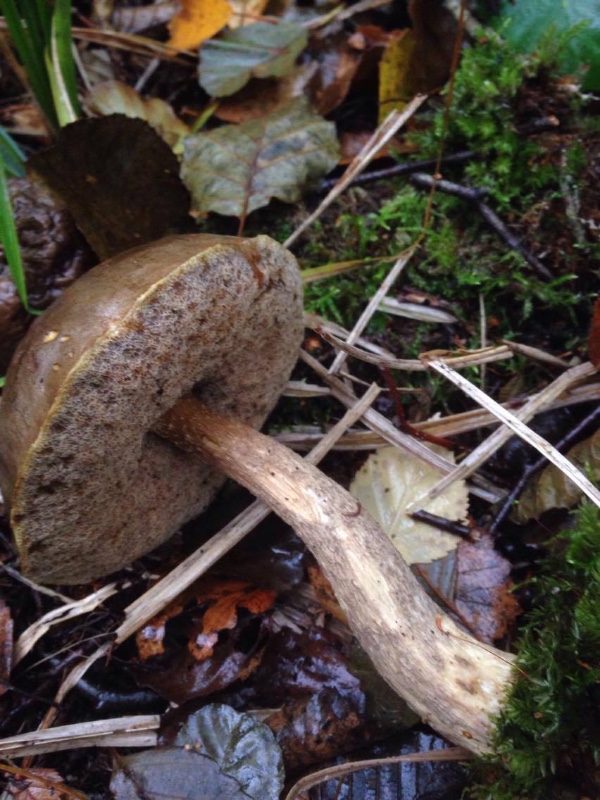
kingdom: Fungi
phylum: Basidiomycota
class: Agaricomycetes
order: Boletales
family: Boletaceae
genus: Leccinum
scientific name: Leccinum
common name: skælrørhat
